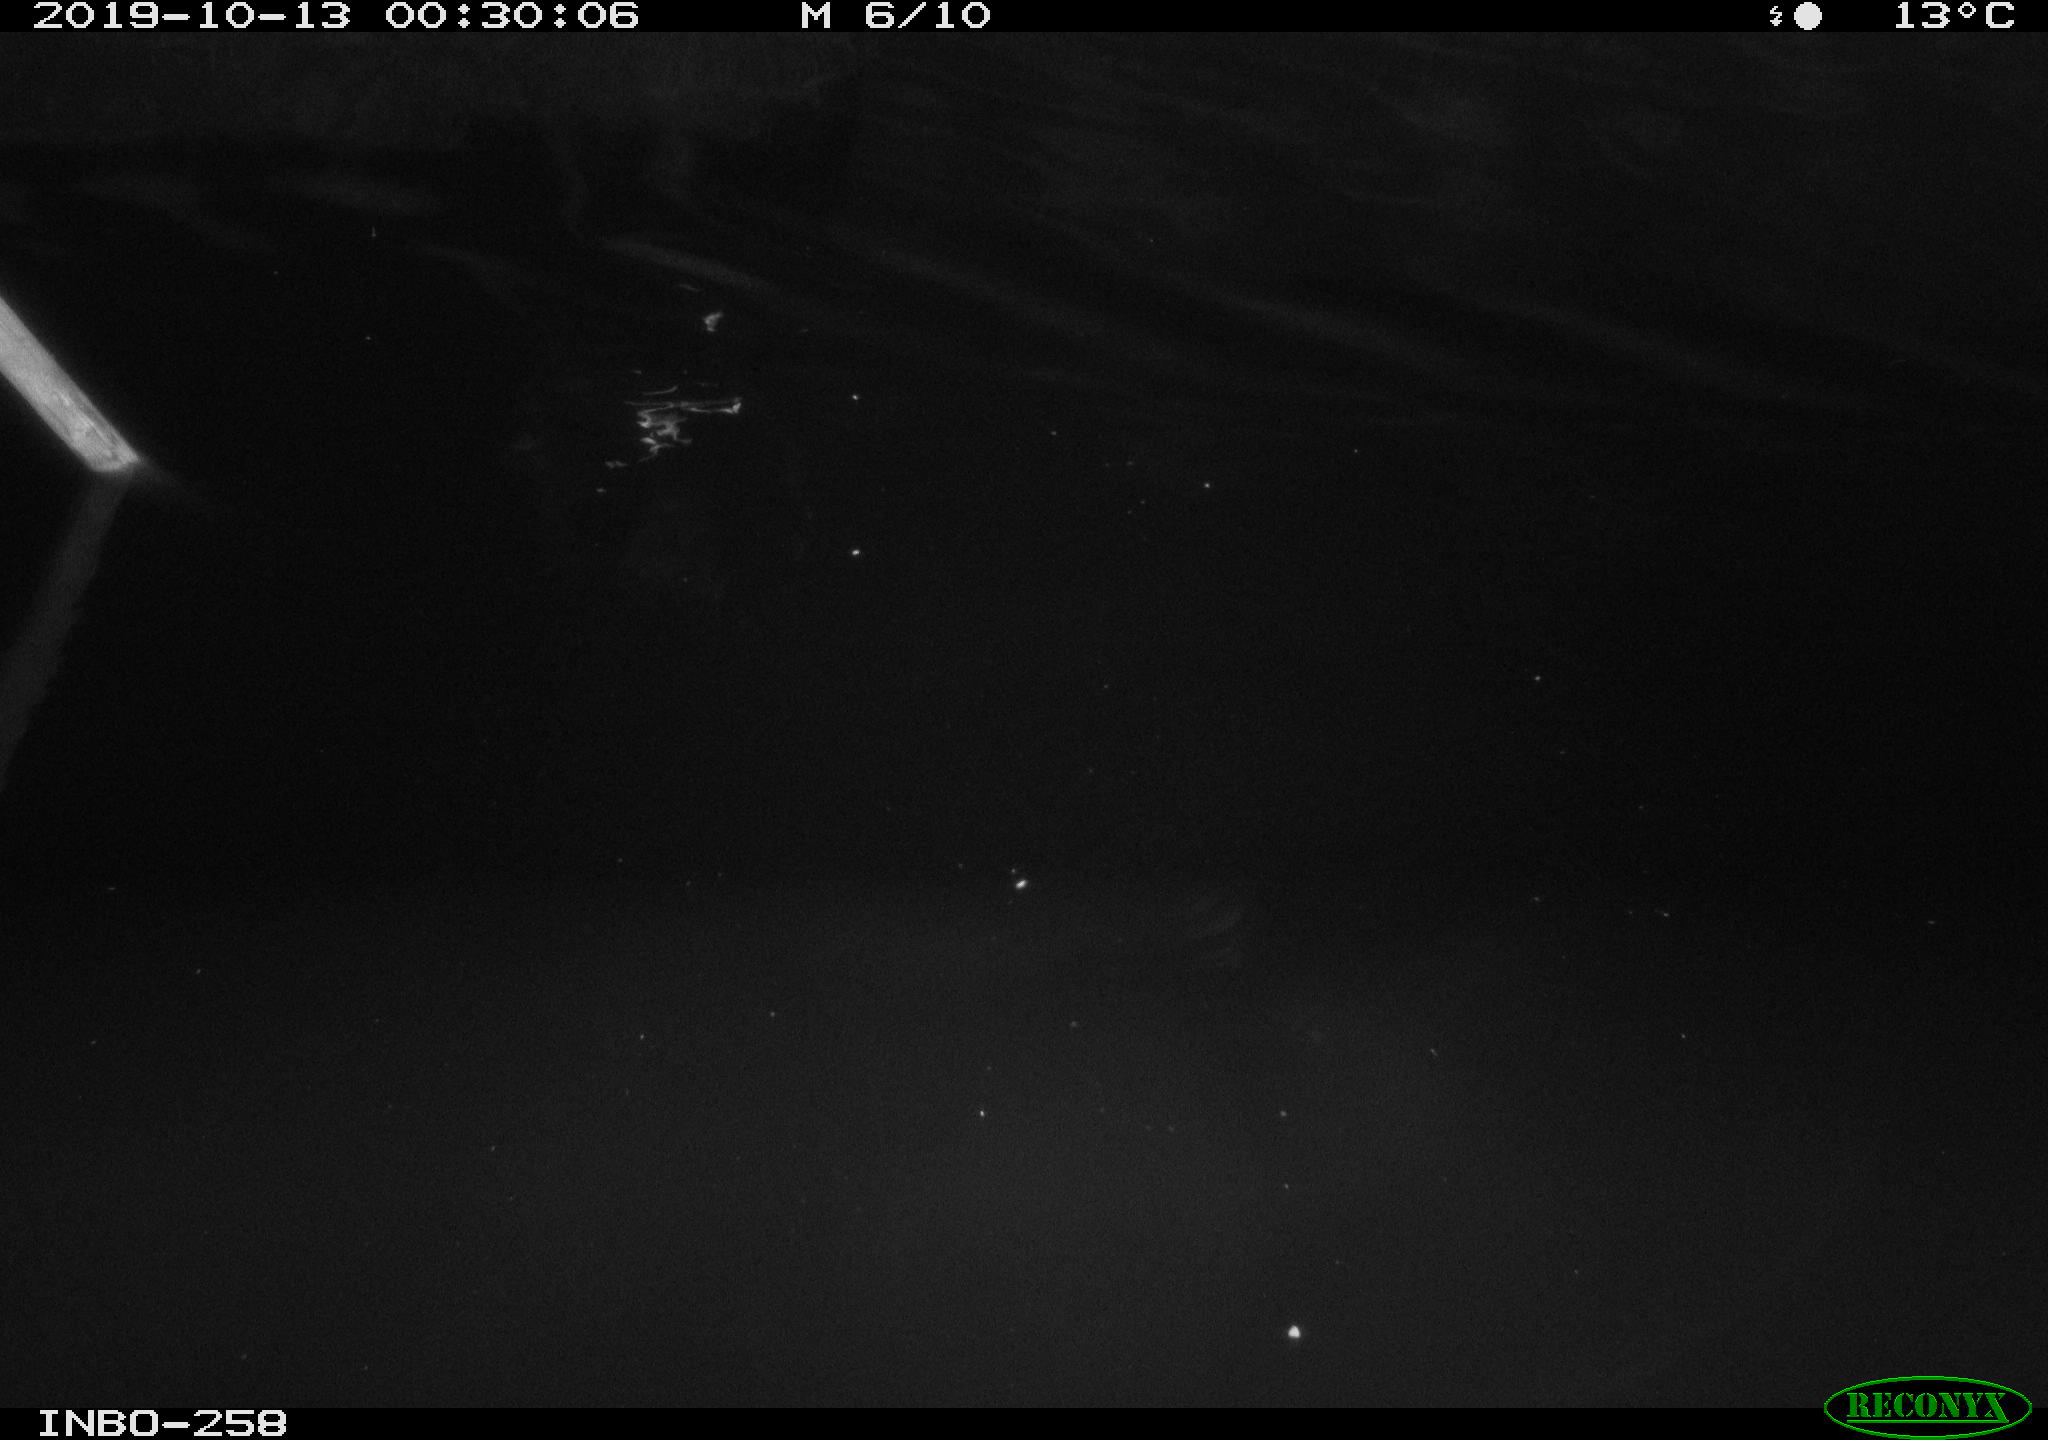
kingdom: Animalia
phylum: Chordata
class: Aves
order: Anseriformes
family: Anatidae
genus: Anas
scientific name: Anas platyrhynchos
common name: Mallard
